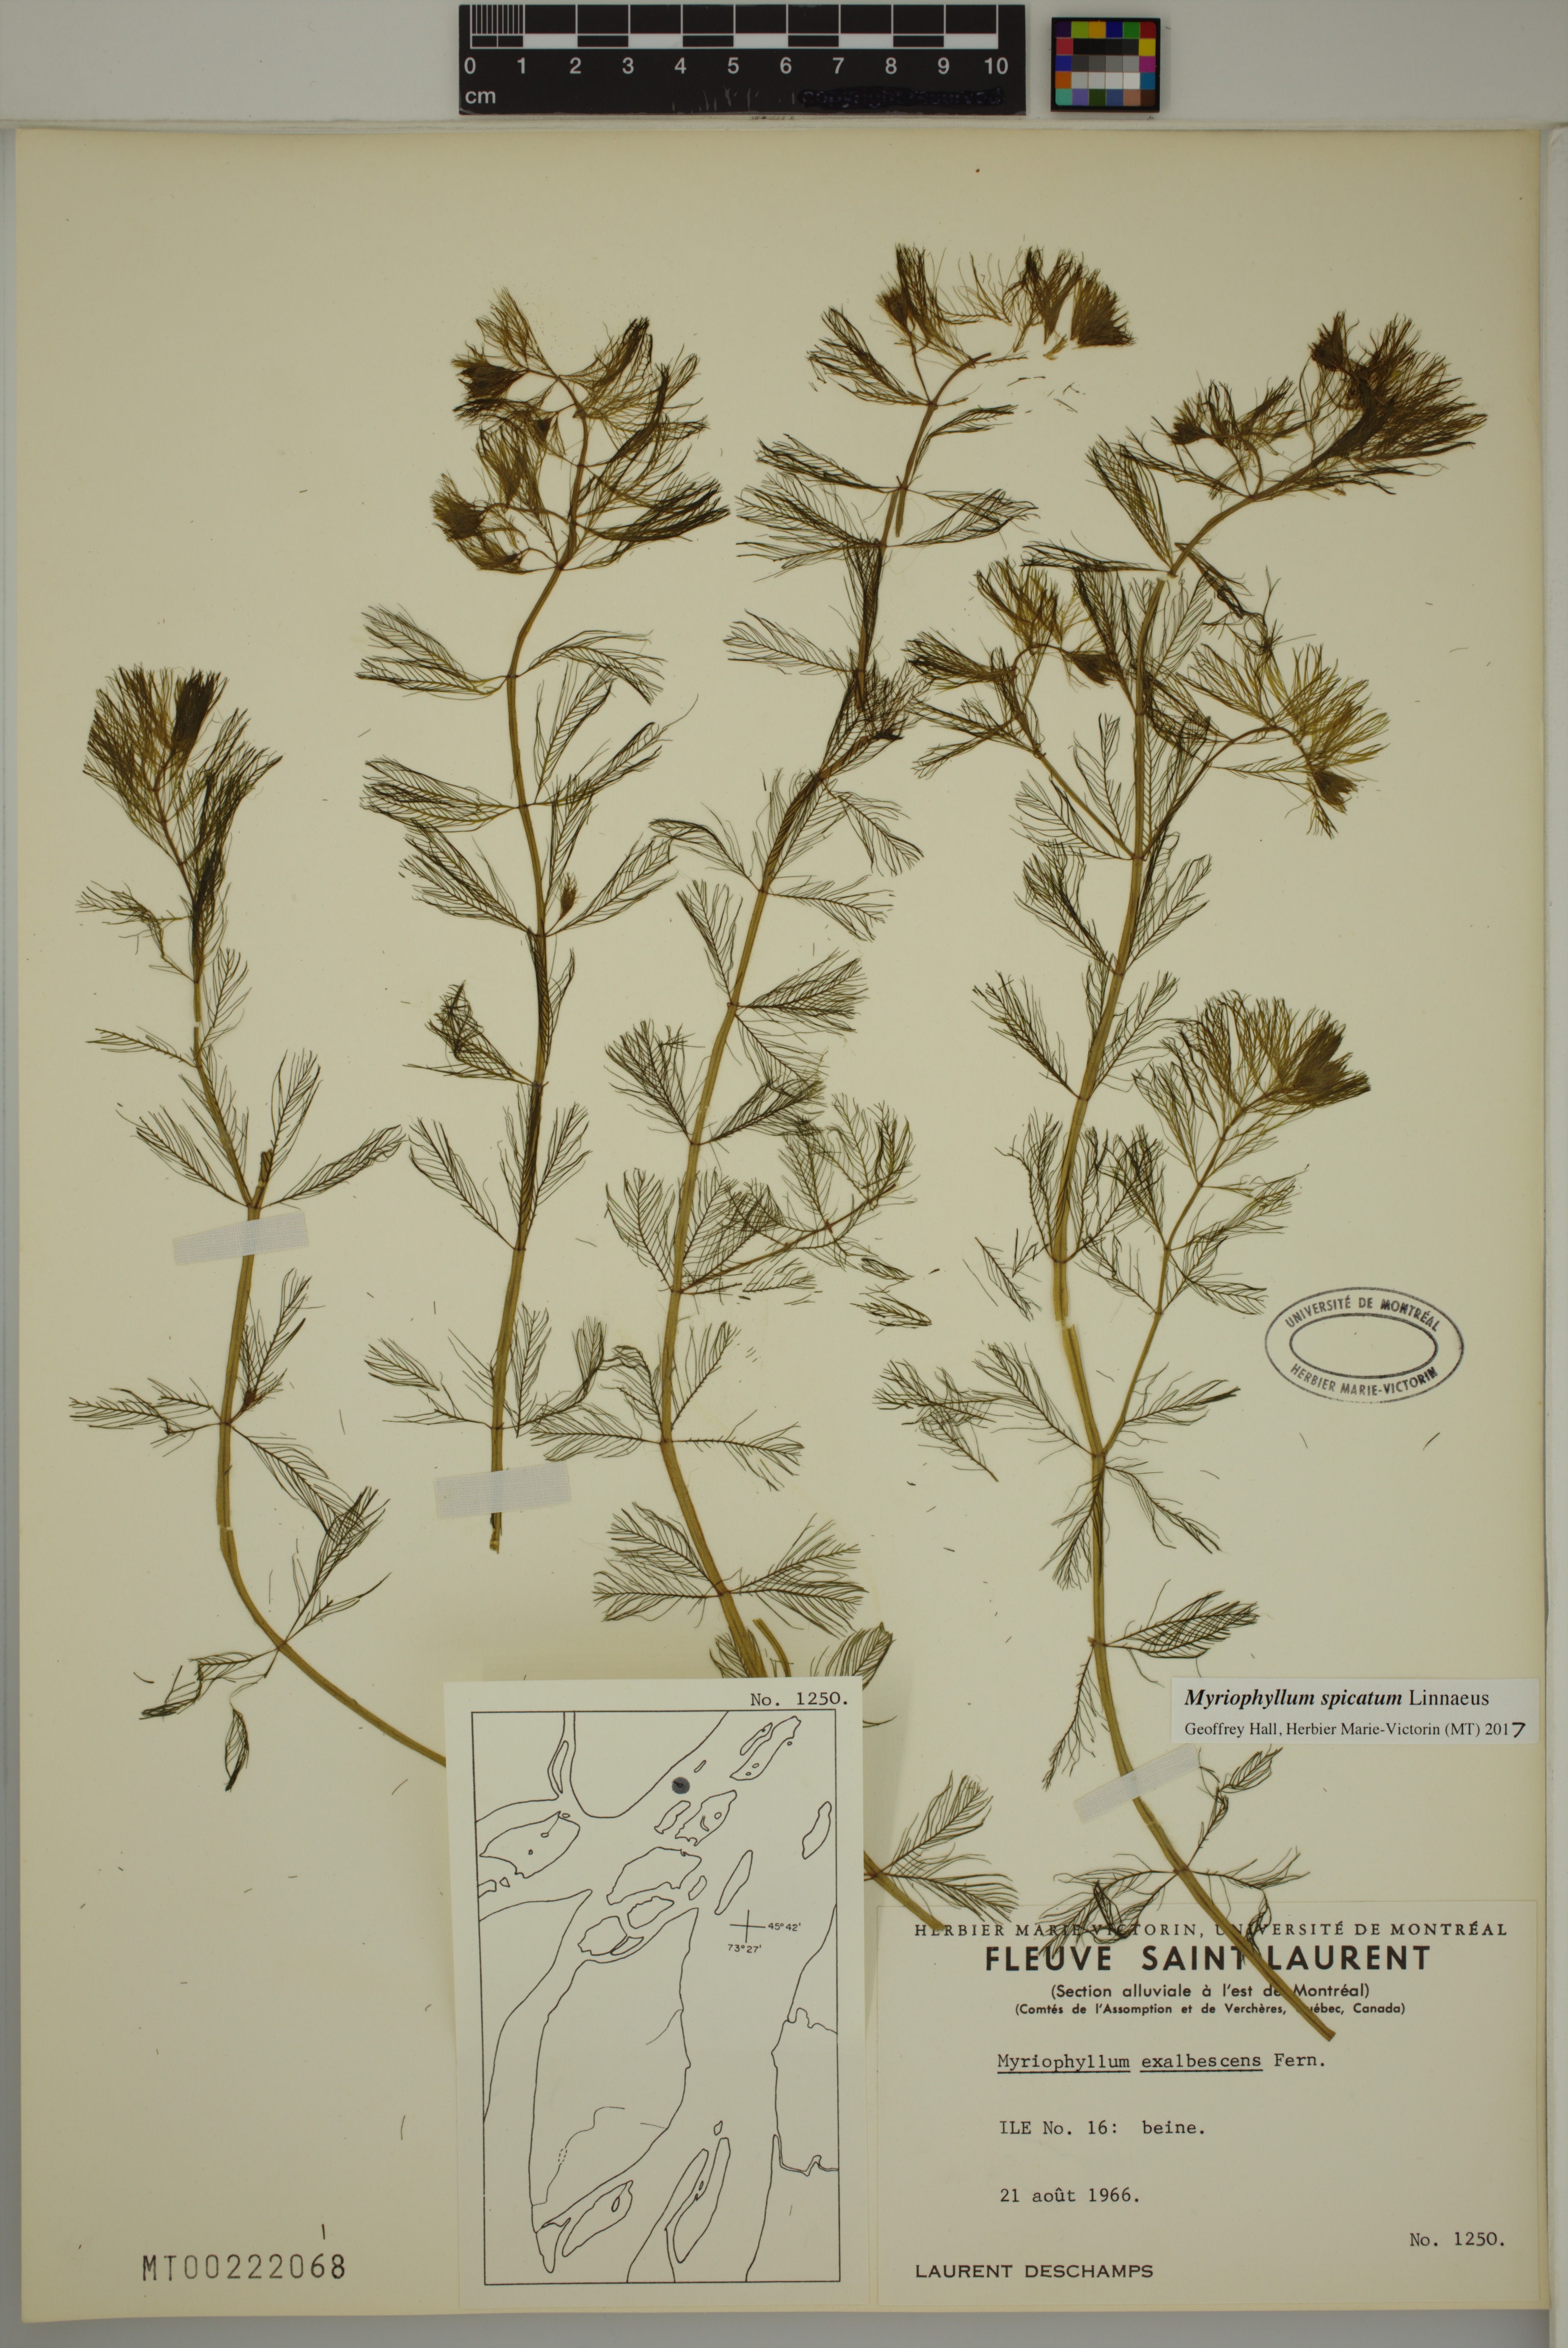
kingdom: Plantae
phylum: Tracheophyta
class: Magnoliopsida
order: Saxifragales
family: Haloragaceae
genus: Myriophyllum
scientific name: Myriophyllum spicatum
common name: Spiked water-milfoil
